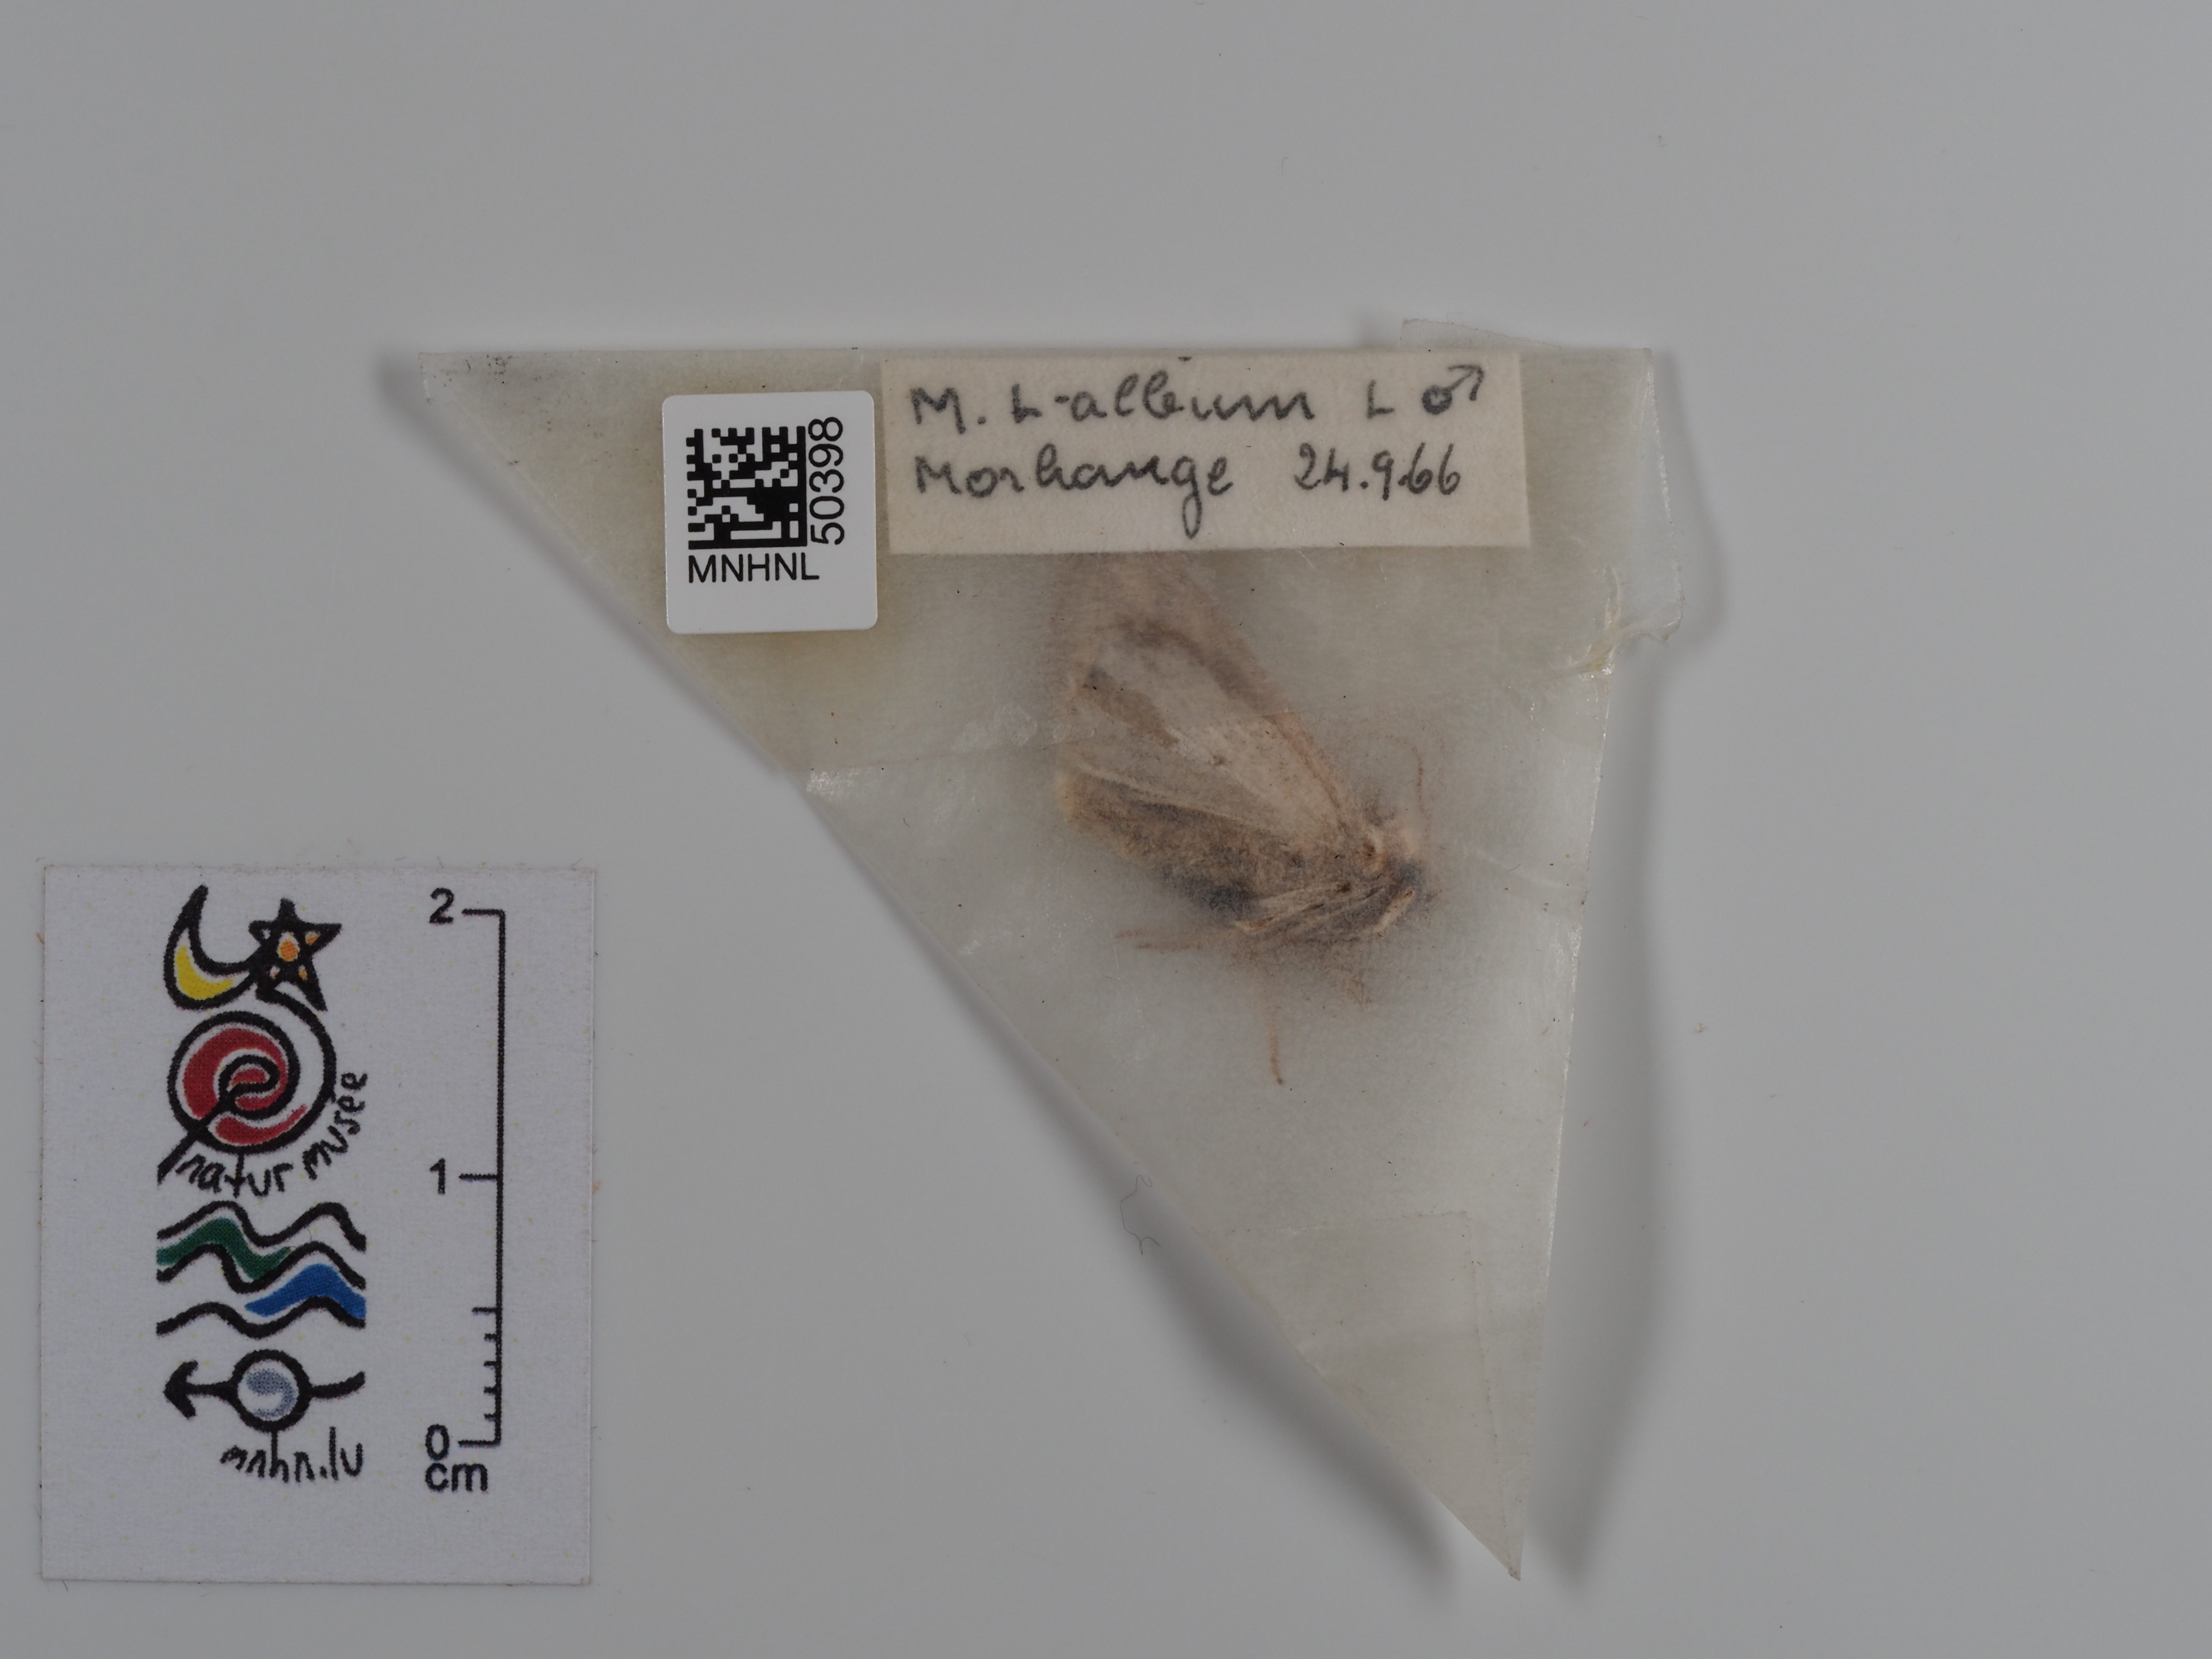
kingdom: Animalia
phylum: Arthropoda
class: Insecta
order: Lepidoptera
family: Noctuidae
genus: Mythimna
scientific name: Mythimna l-album
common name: L-album wainscot
